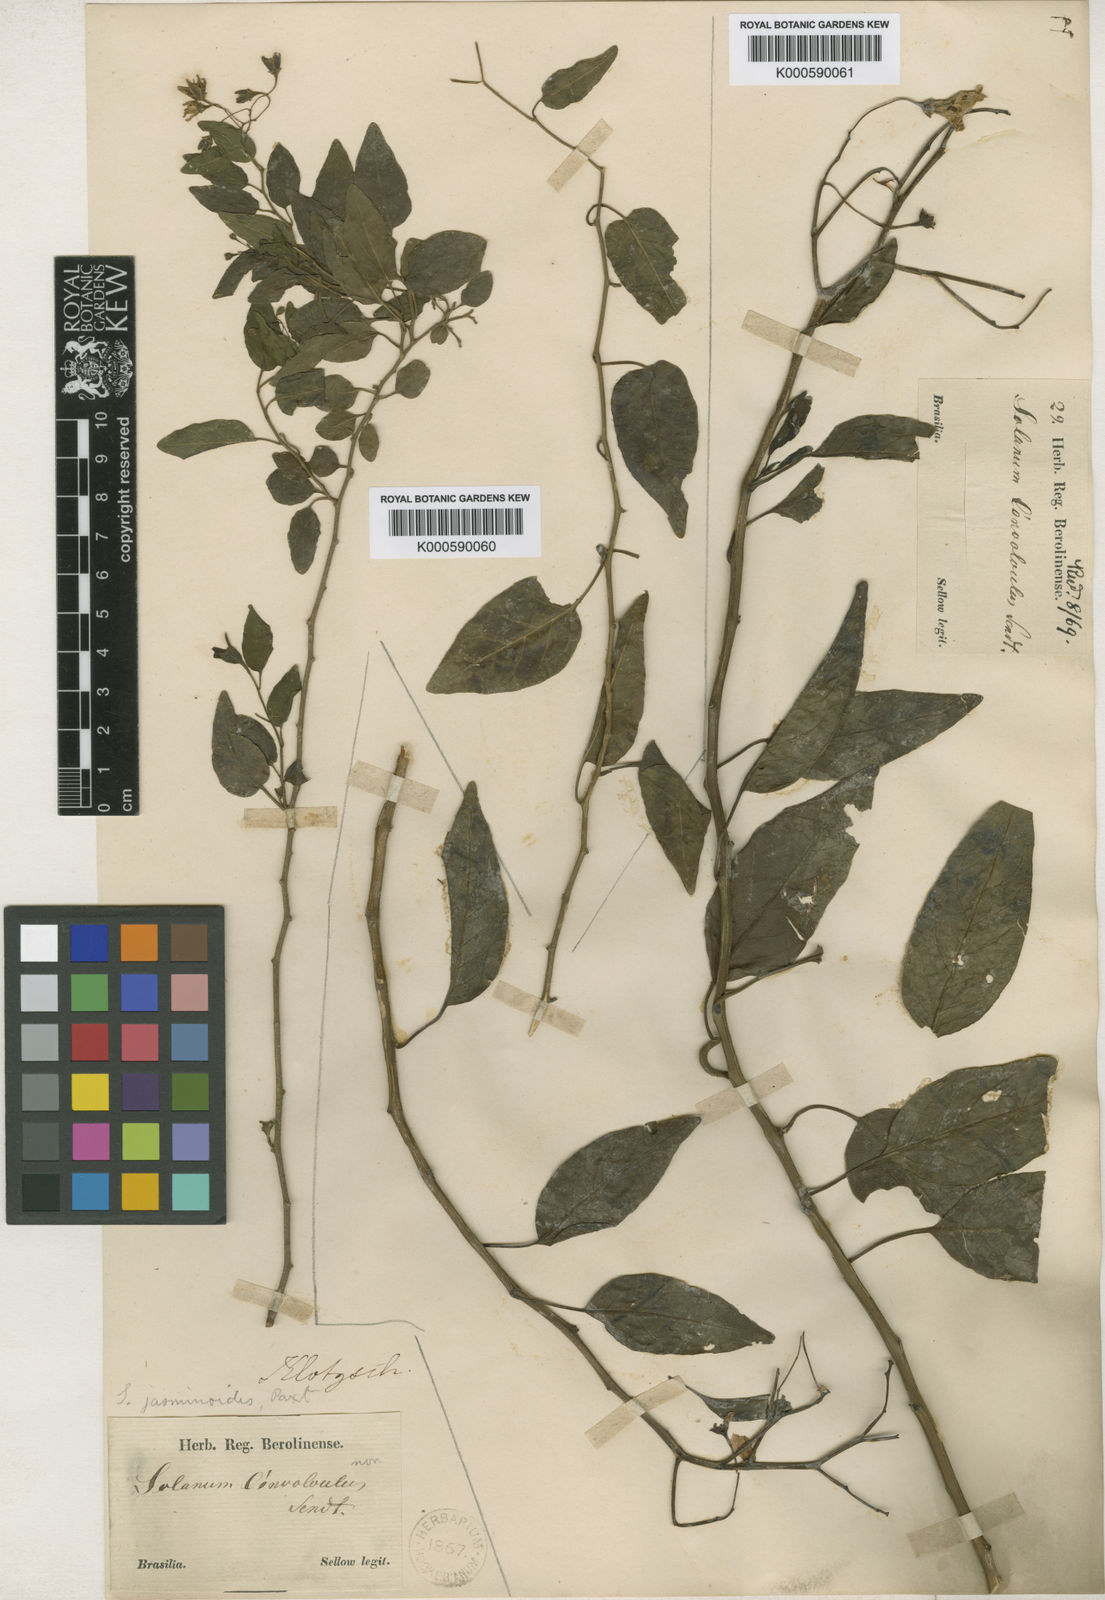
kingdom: Plantae
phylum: Tracheophyta
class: Magnoliopsida
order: Solanales
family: Solanaceae
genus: Solanum
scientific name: Solanum flaccidum
